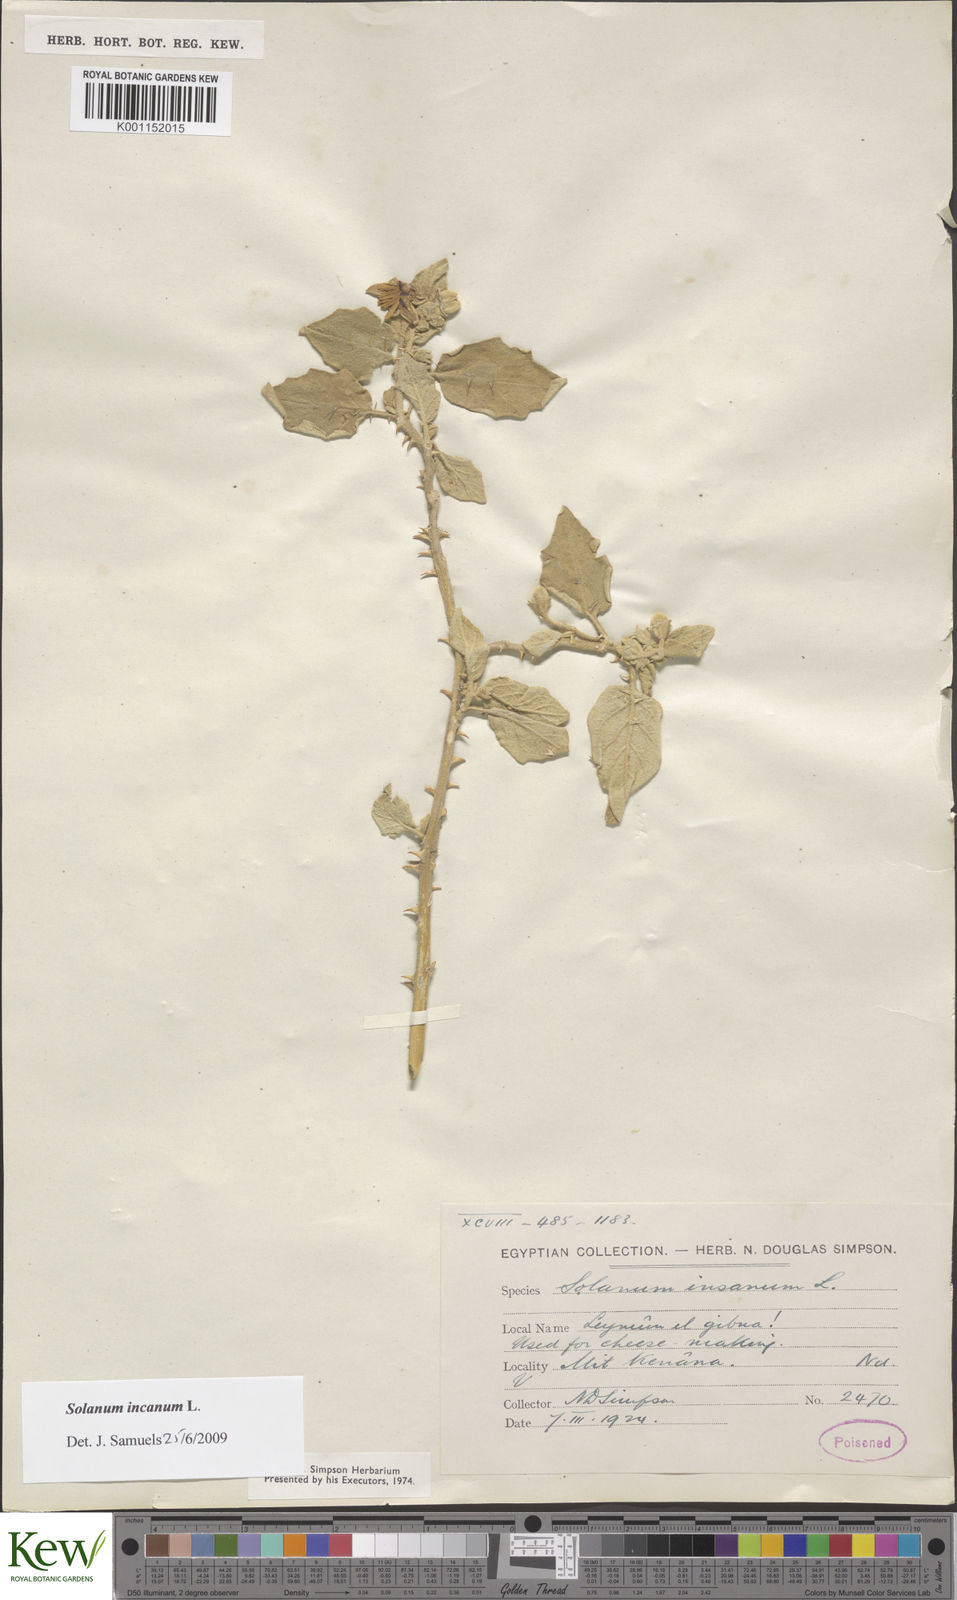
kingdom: Plantae
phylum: Tracheophyta
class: Magnoliopsida
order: Solanales
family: Solanaceae
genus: Solanum
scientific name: Solanum incanum
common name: Bitter apple
